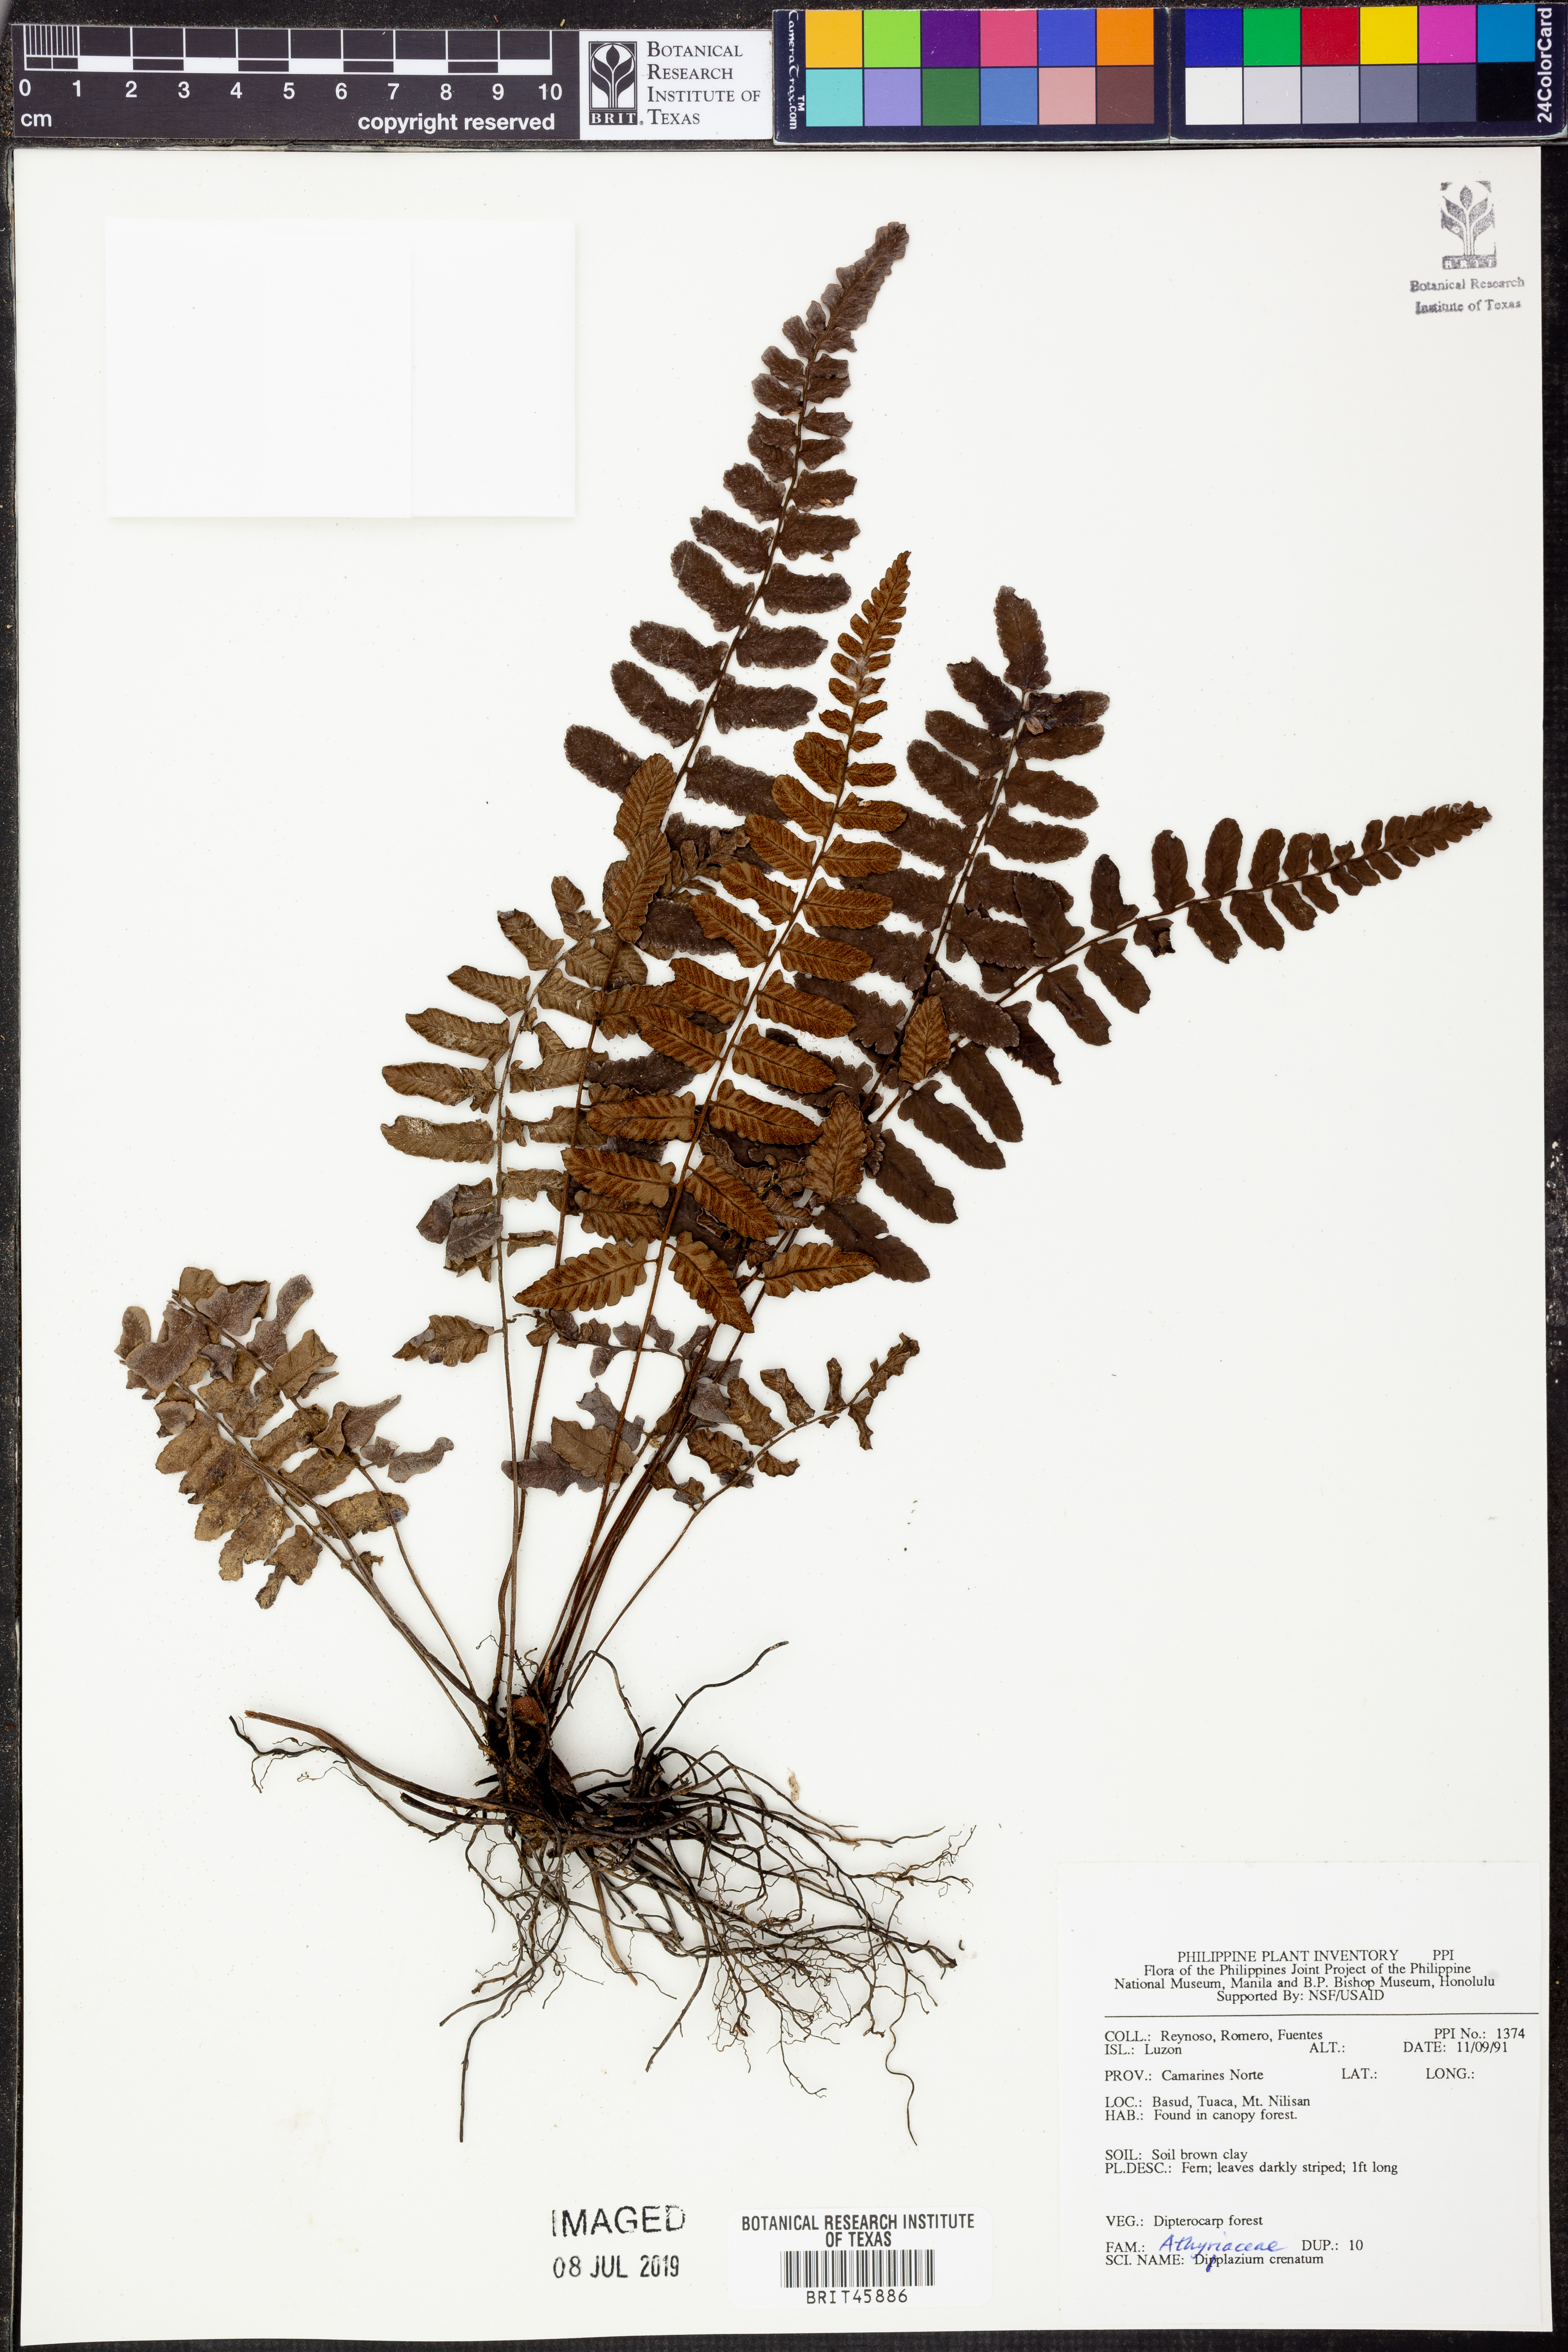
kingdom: Plantae
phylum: Tracheophyta
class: Polypodiopsida
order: Polypodiales
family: Athyriaceae
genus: Diplazium
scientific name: Diplazium striatum
